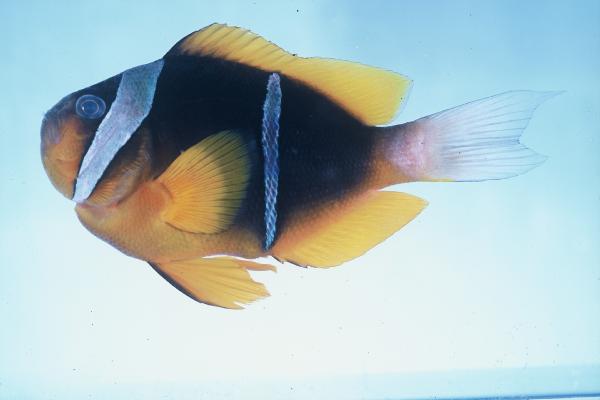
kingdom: Animalia
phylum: Chordata
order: Perciformes
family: Pomacentridae
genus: Amphiprion
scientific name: Amphiprion allardi
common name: Allard's anemonefish
